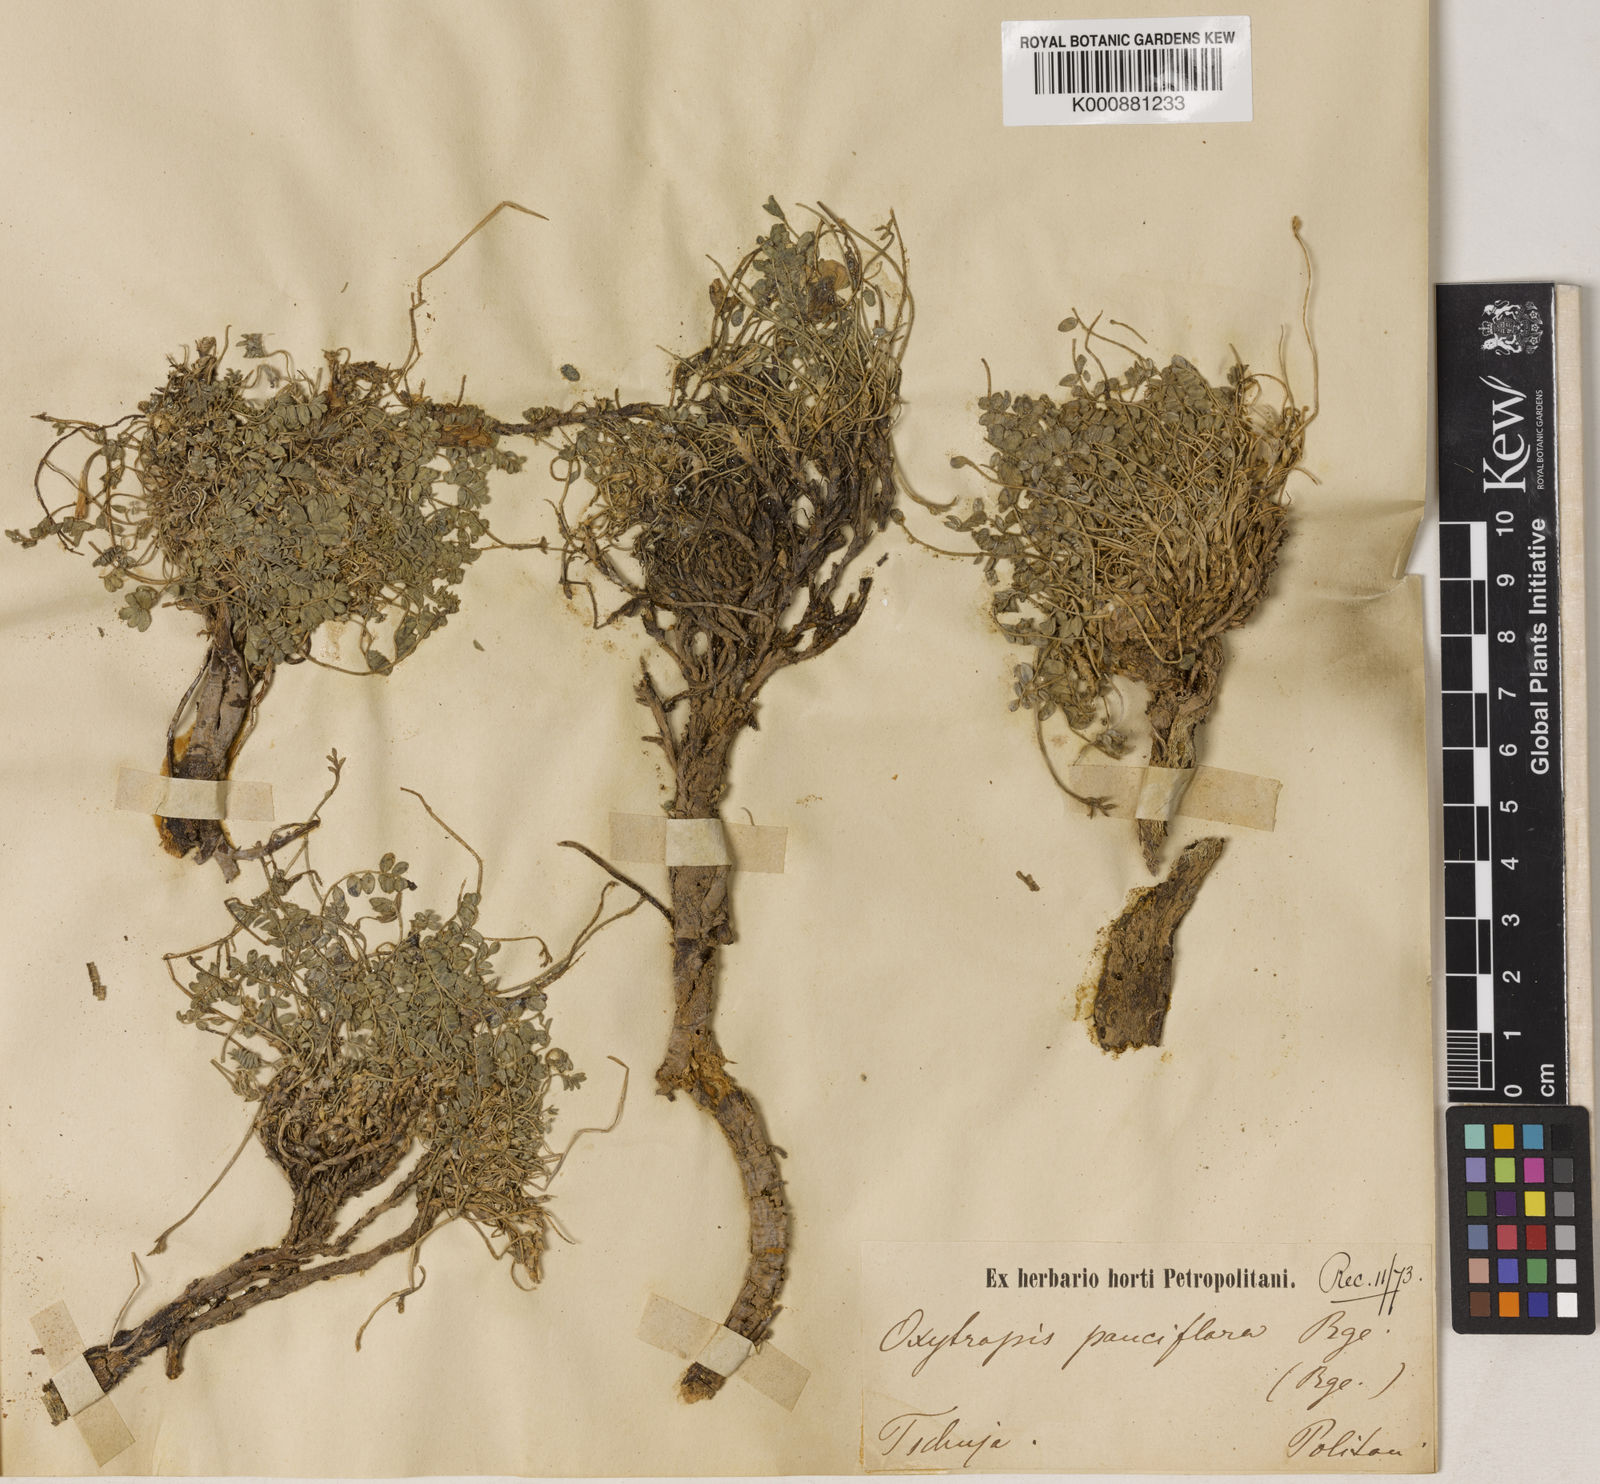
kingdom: Plantae
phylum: Tracheophyta
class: Magnoliopsida
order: Fabales
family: Fabaceae
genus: Oxytropis
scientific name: Oxytropis pauciflora
